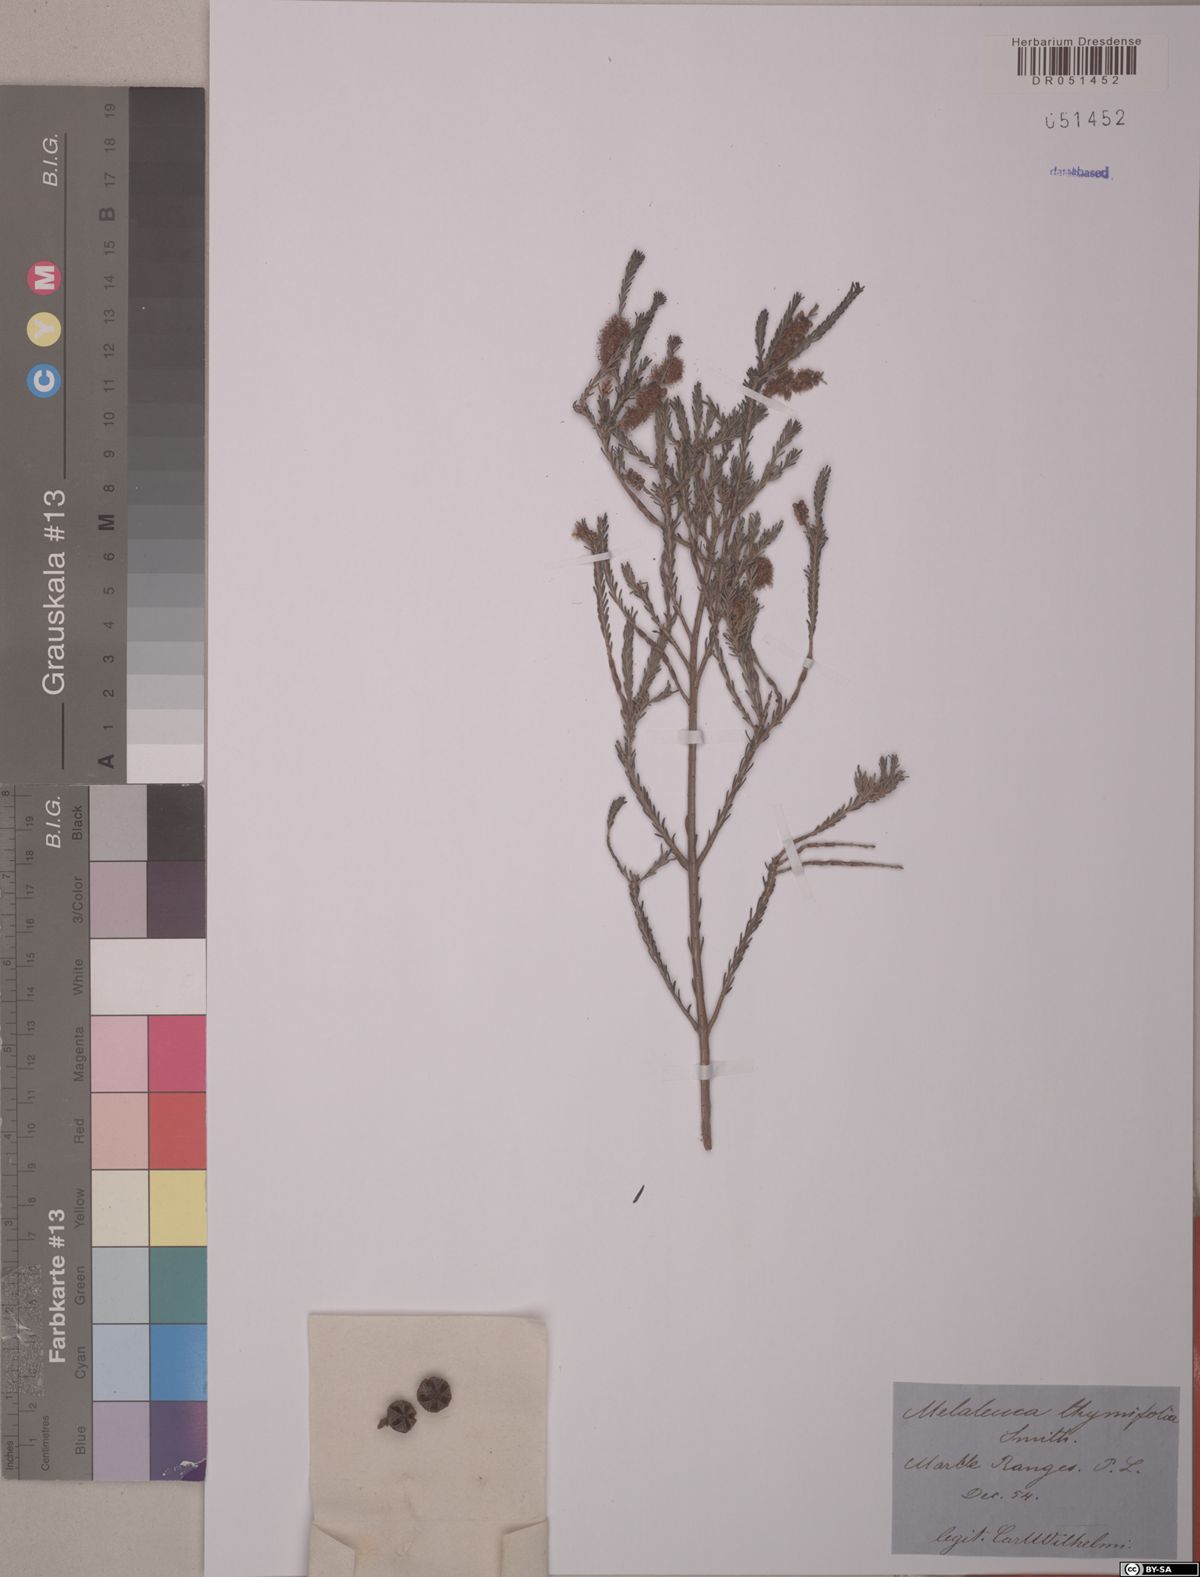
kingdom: Plantae
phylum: Tracheophyta
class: Magnoliopsida
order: Myrtales
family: Myrtaceae
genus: Melaleuca
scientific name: Melaleuca thymifolia
